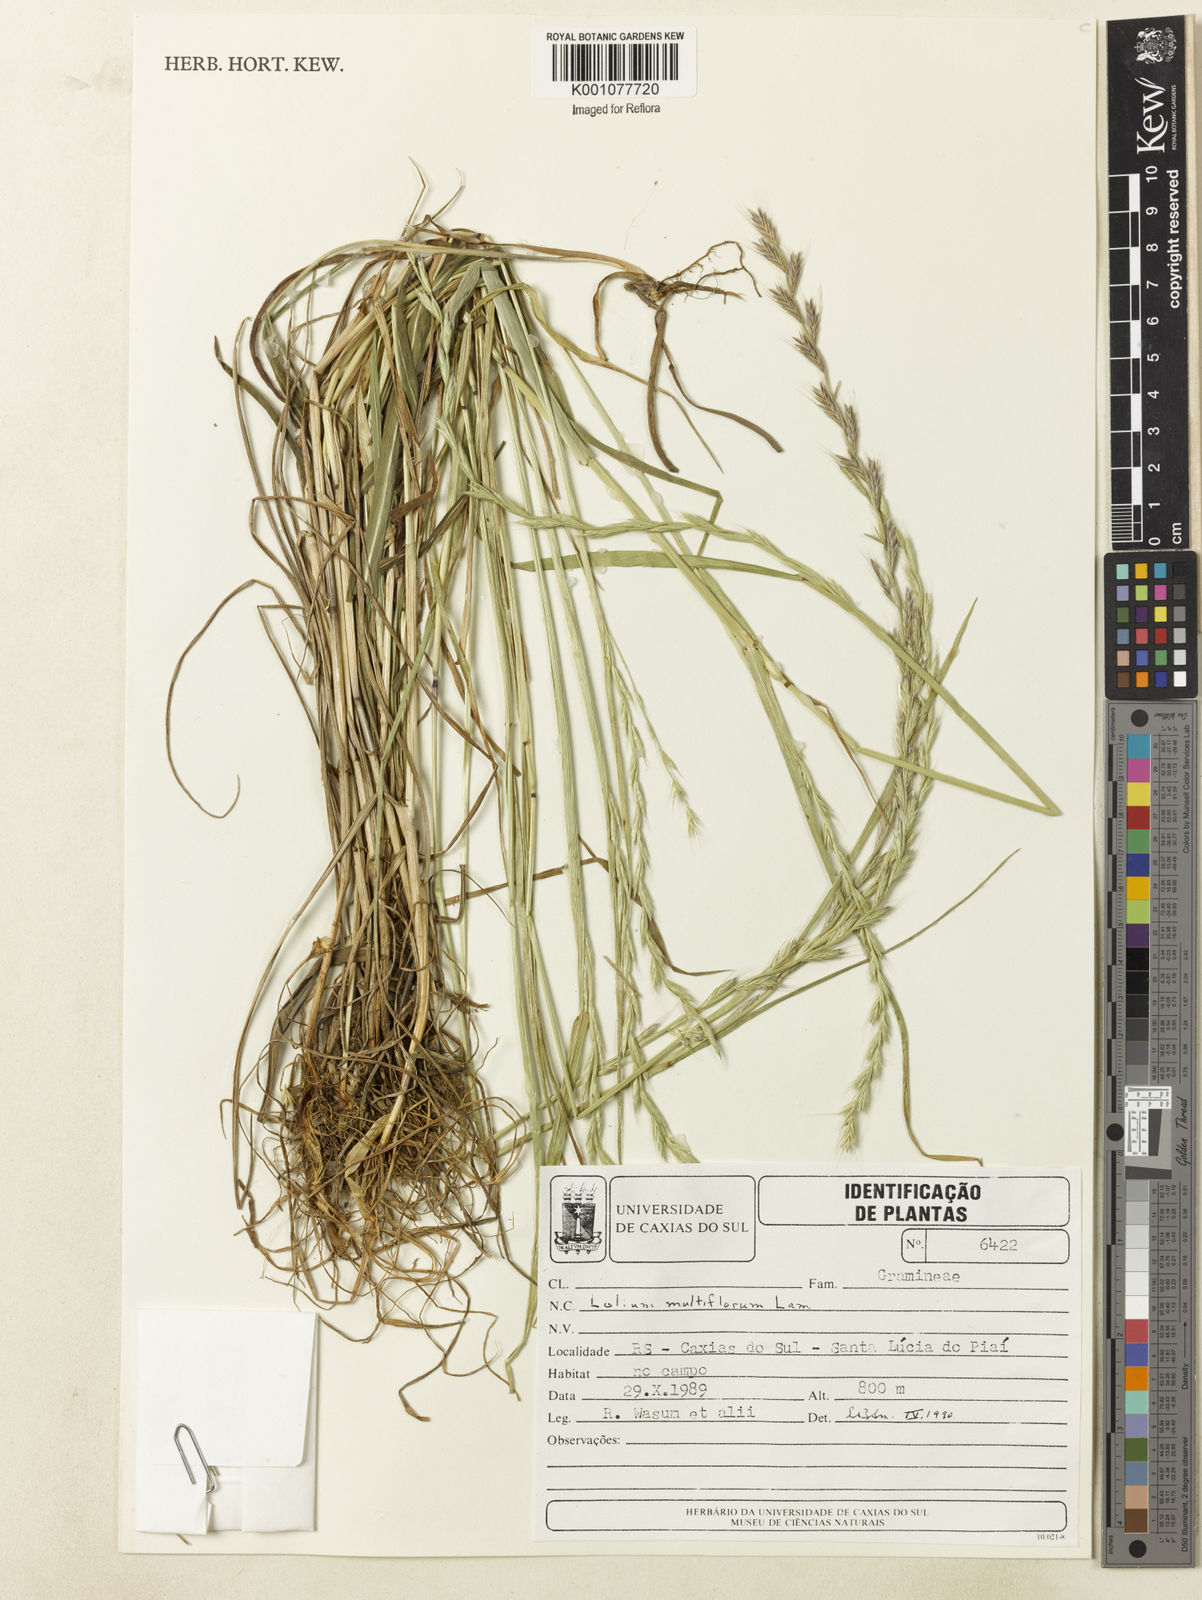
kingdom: Plantae
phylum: Tracheophyta
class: Liliopsida
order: Poales
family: Poaceae
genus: Lolium
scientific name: Lolium multiflorum
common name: Annual ryegrass
